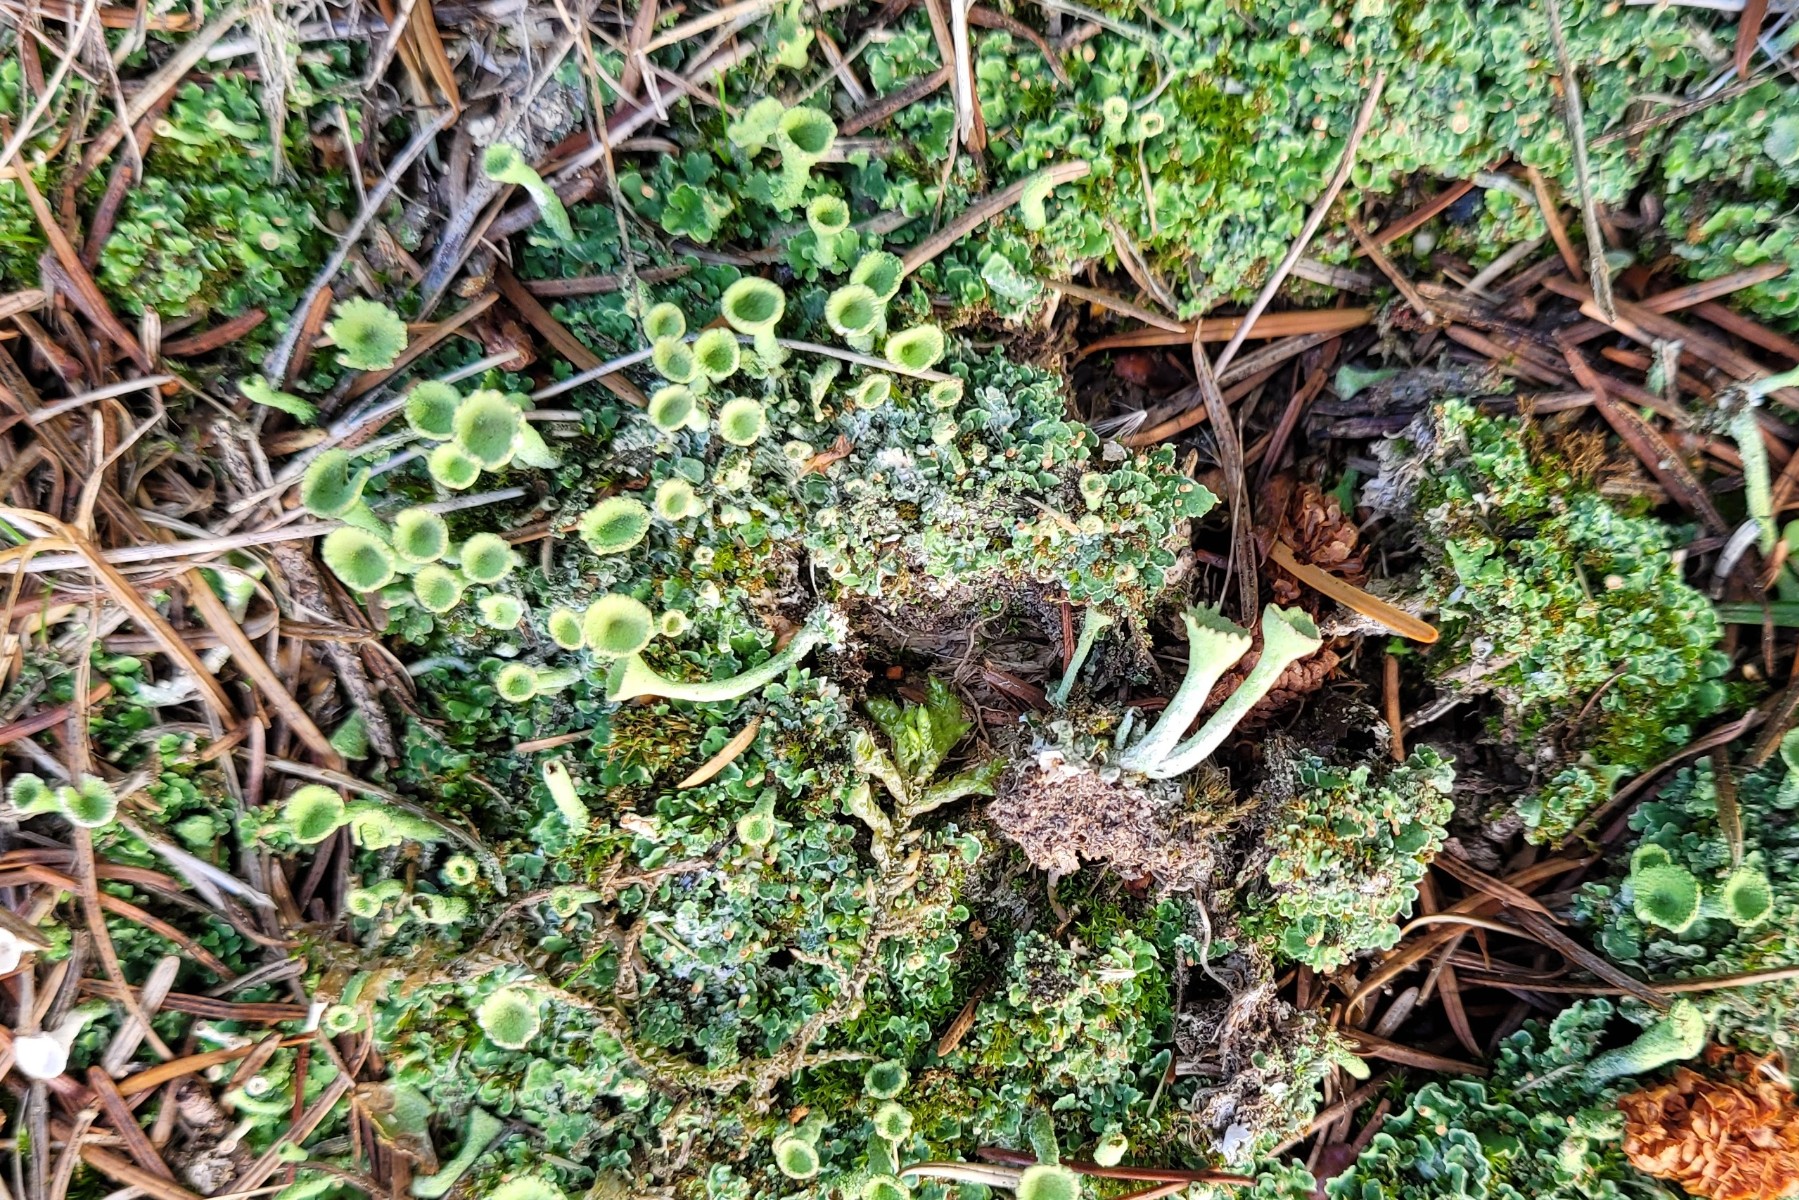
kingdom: Fungi
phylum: Ascomycota
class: Lecanoromycetes
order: Lecanorales
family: Cladoniaceae
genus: Cladonia
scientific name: Cladonia fimbriata
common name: bleggrøn bægerlav
